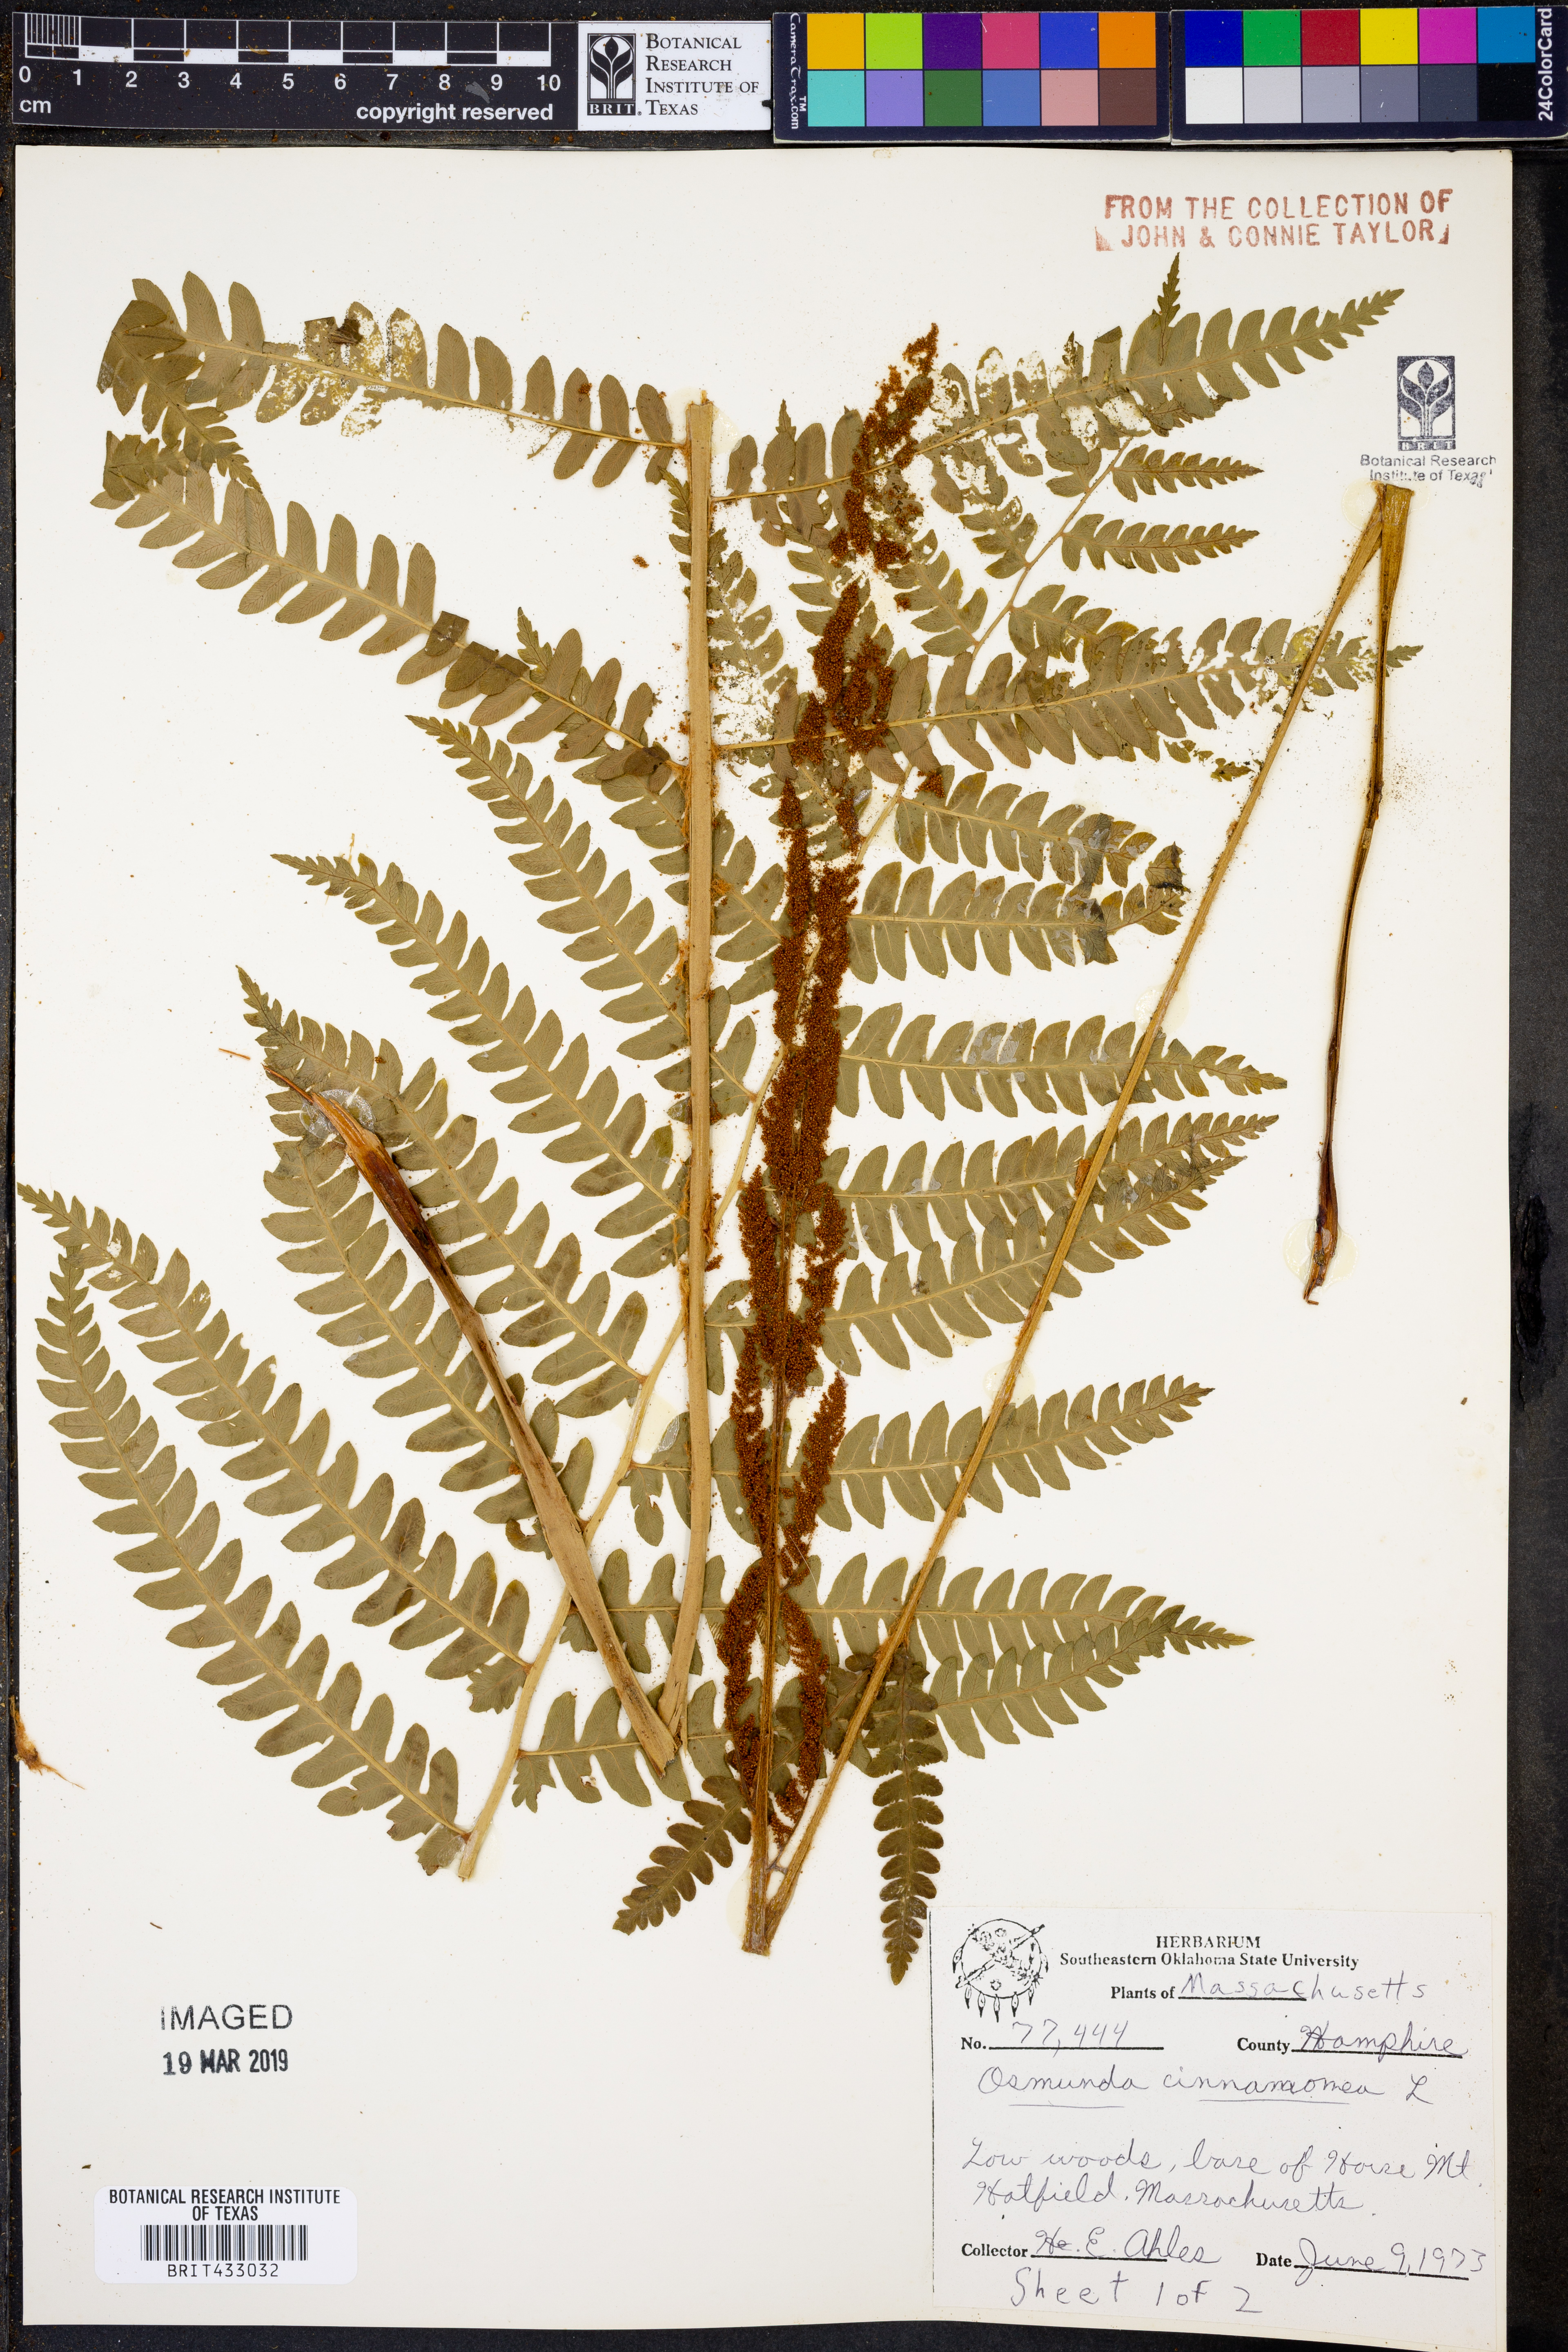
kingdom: Plantae
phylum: Tracheophyta
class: Polypodiopsida
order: Osmundales
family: Osmundaceae
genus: Osmundastrum
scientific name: Osmundastrum cinnamomeum
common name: Cinnamon fern
